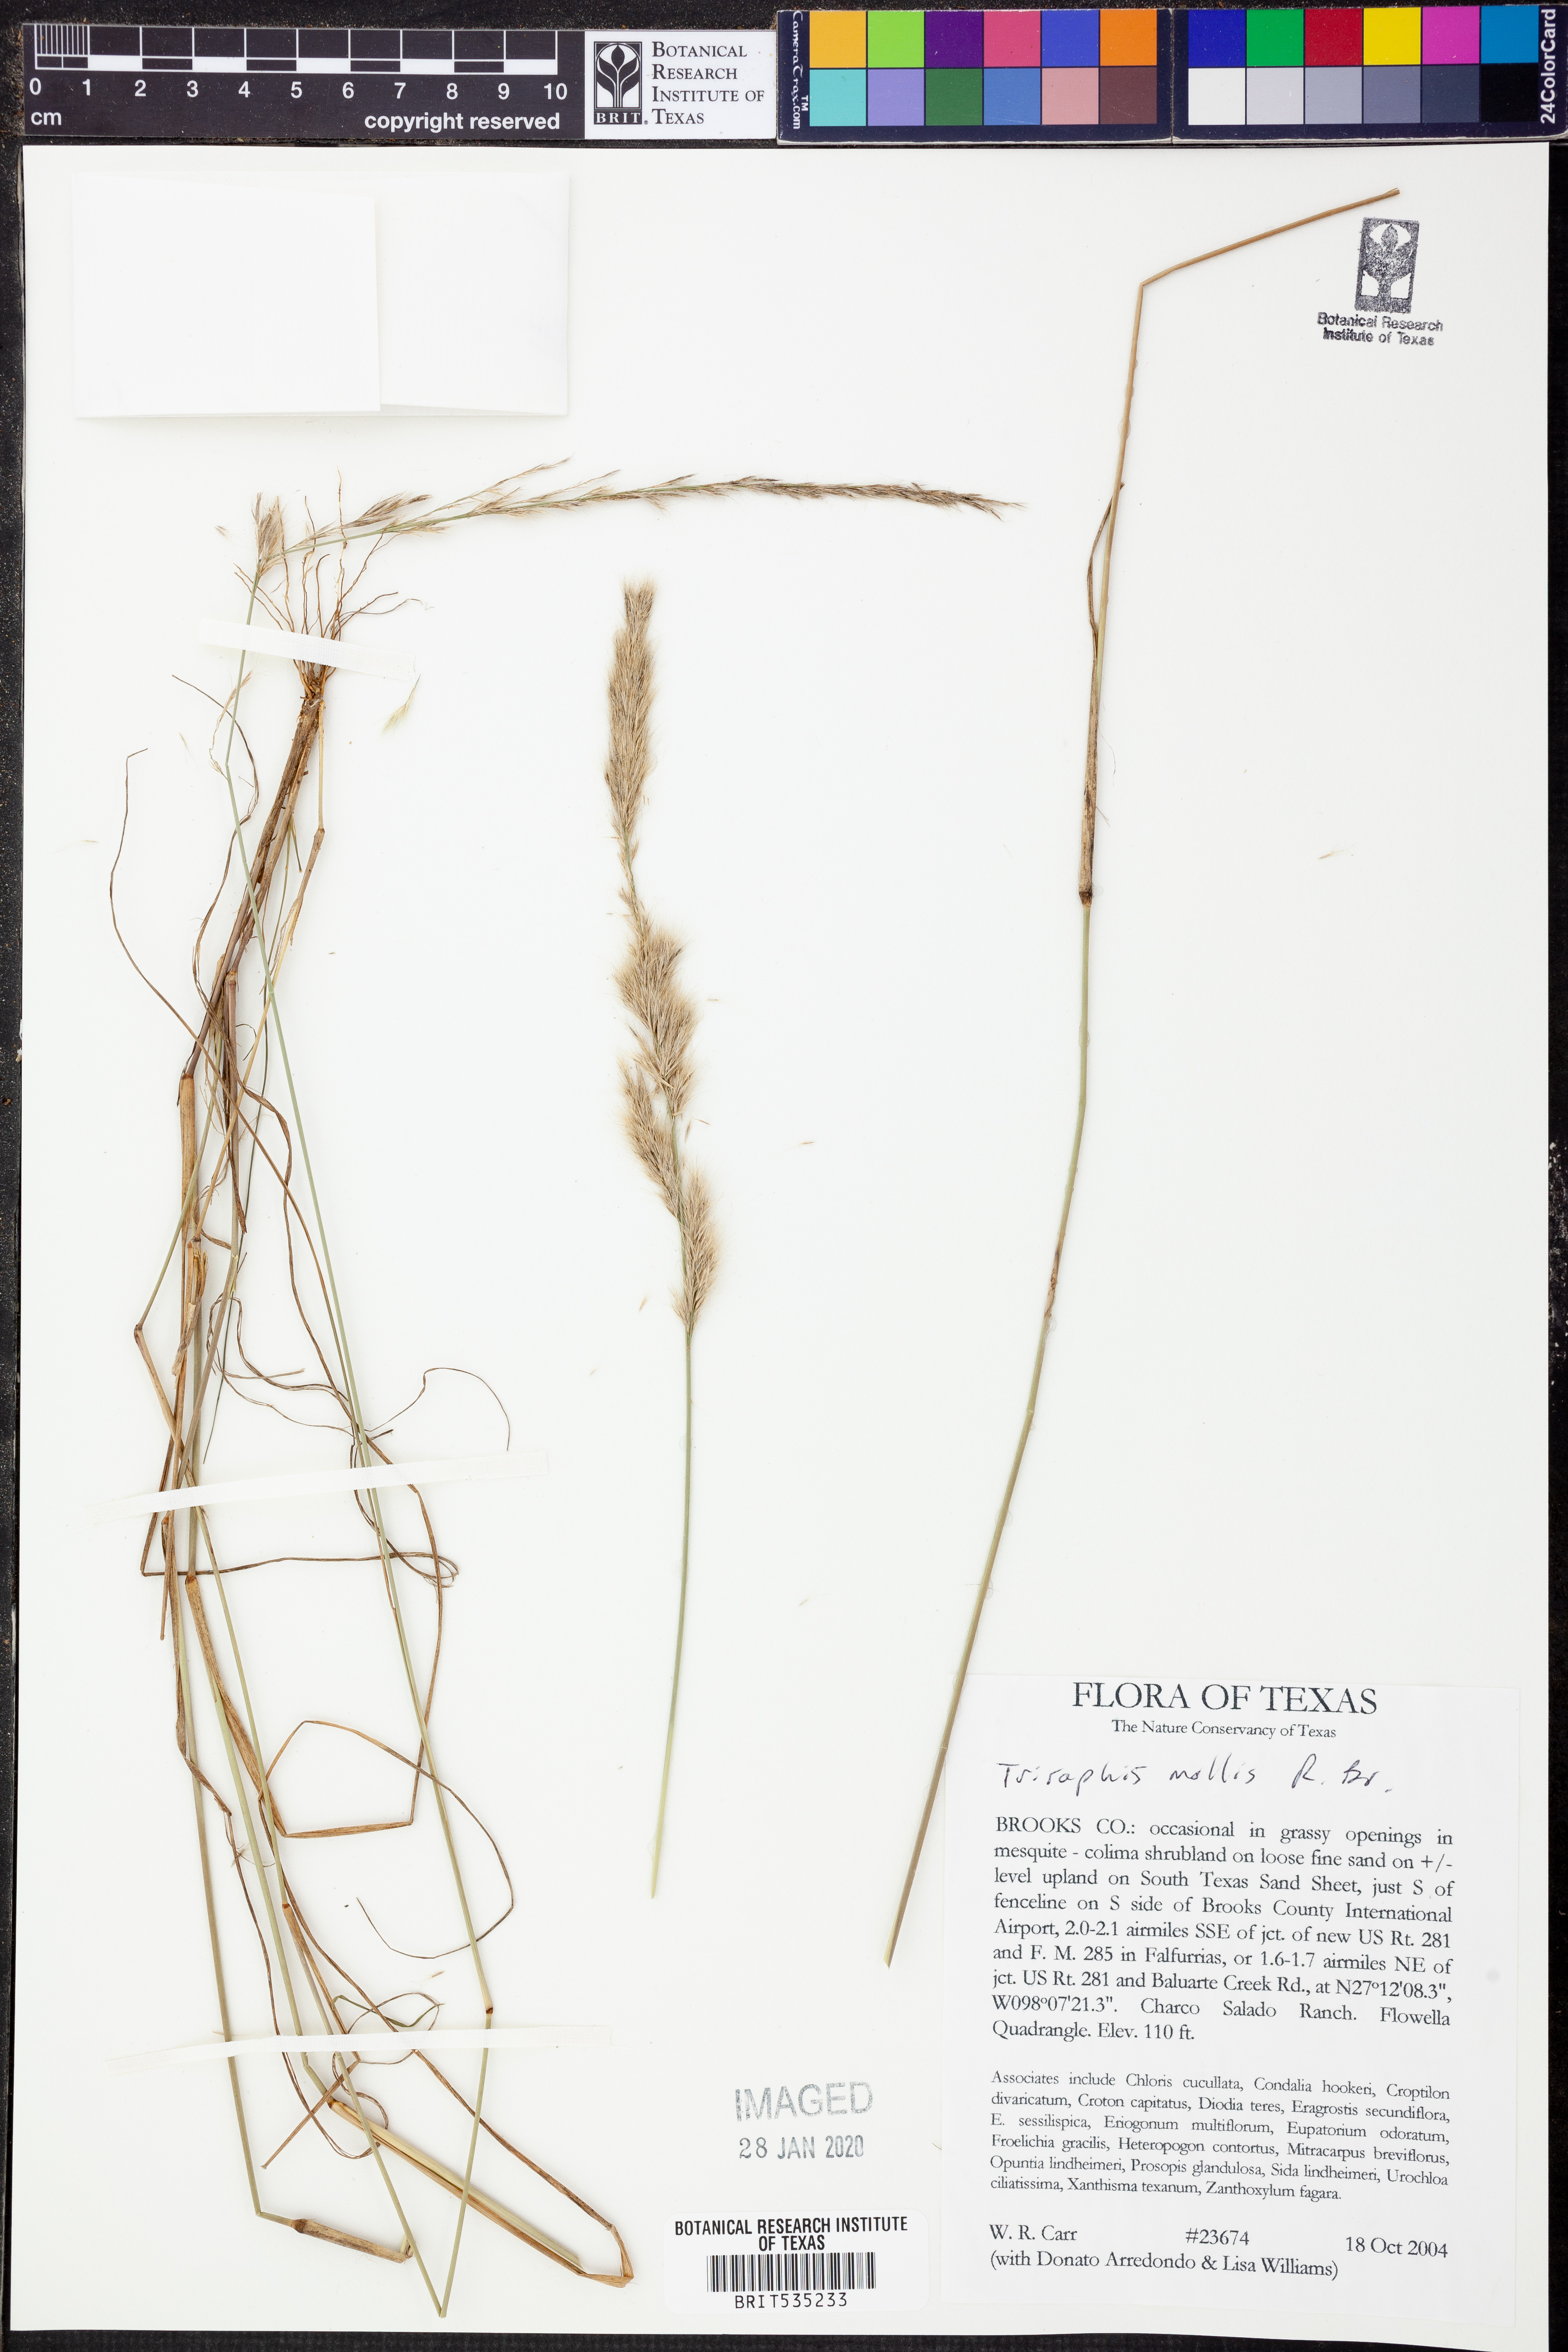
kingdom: Plantae
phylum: Tracheophyta
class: Liliopsida
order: Poales
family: Poaceae
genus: Triraphis
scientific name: Triraphis mollis
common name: Purple needlegrass
